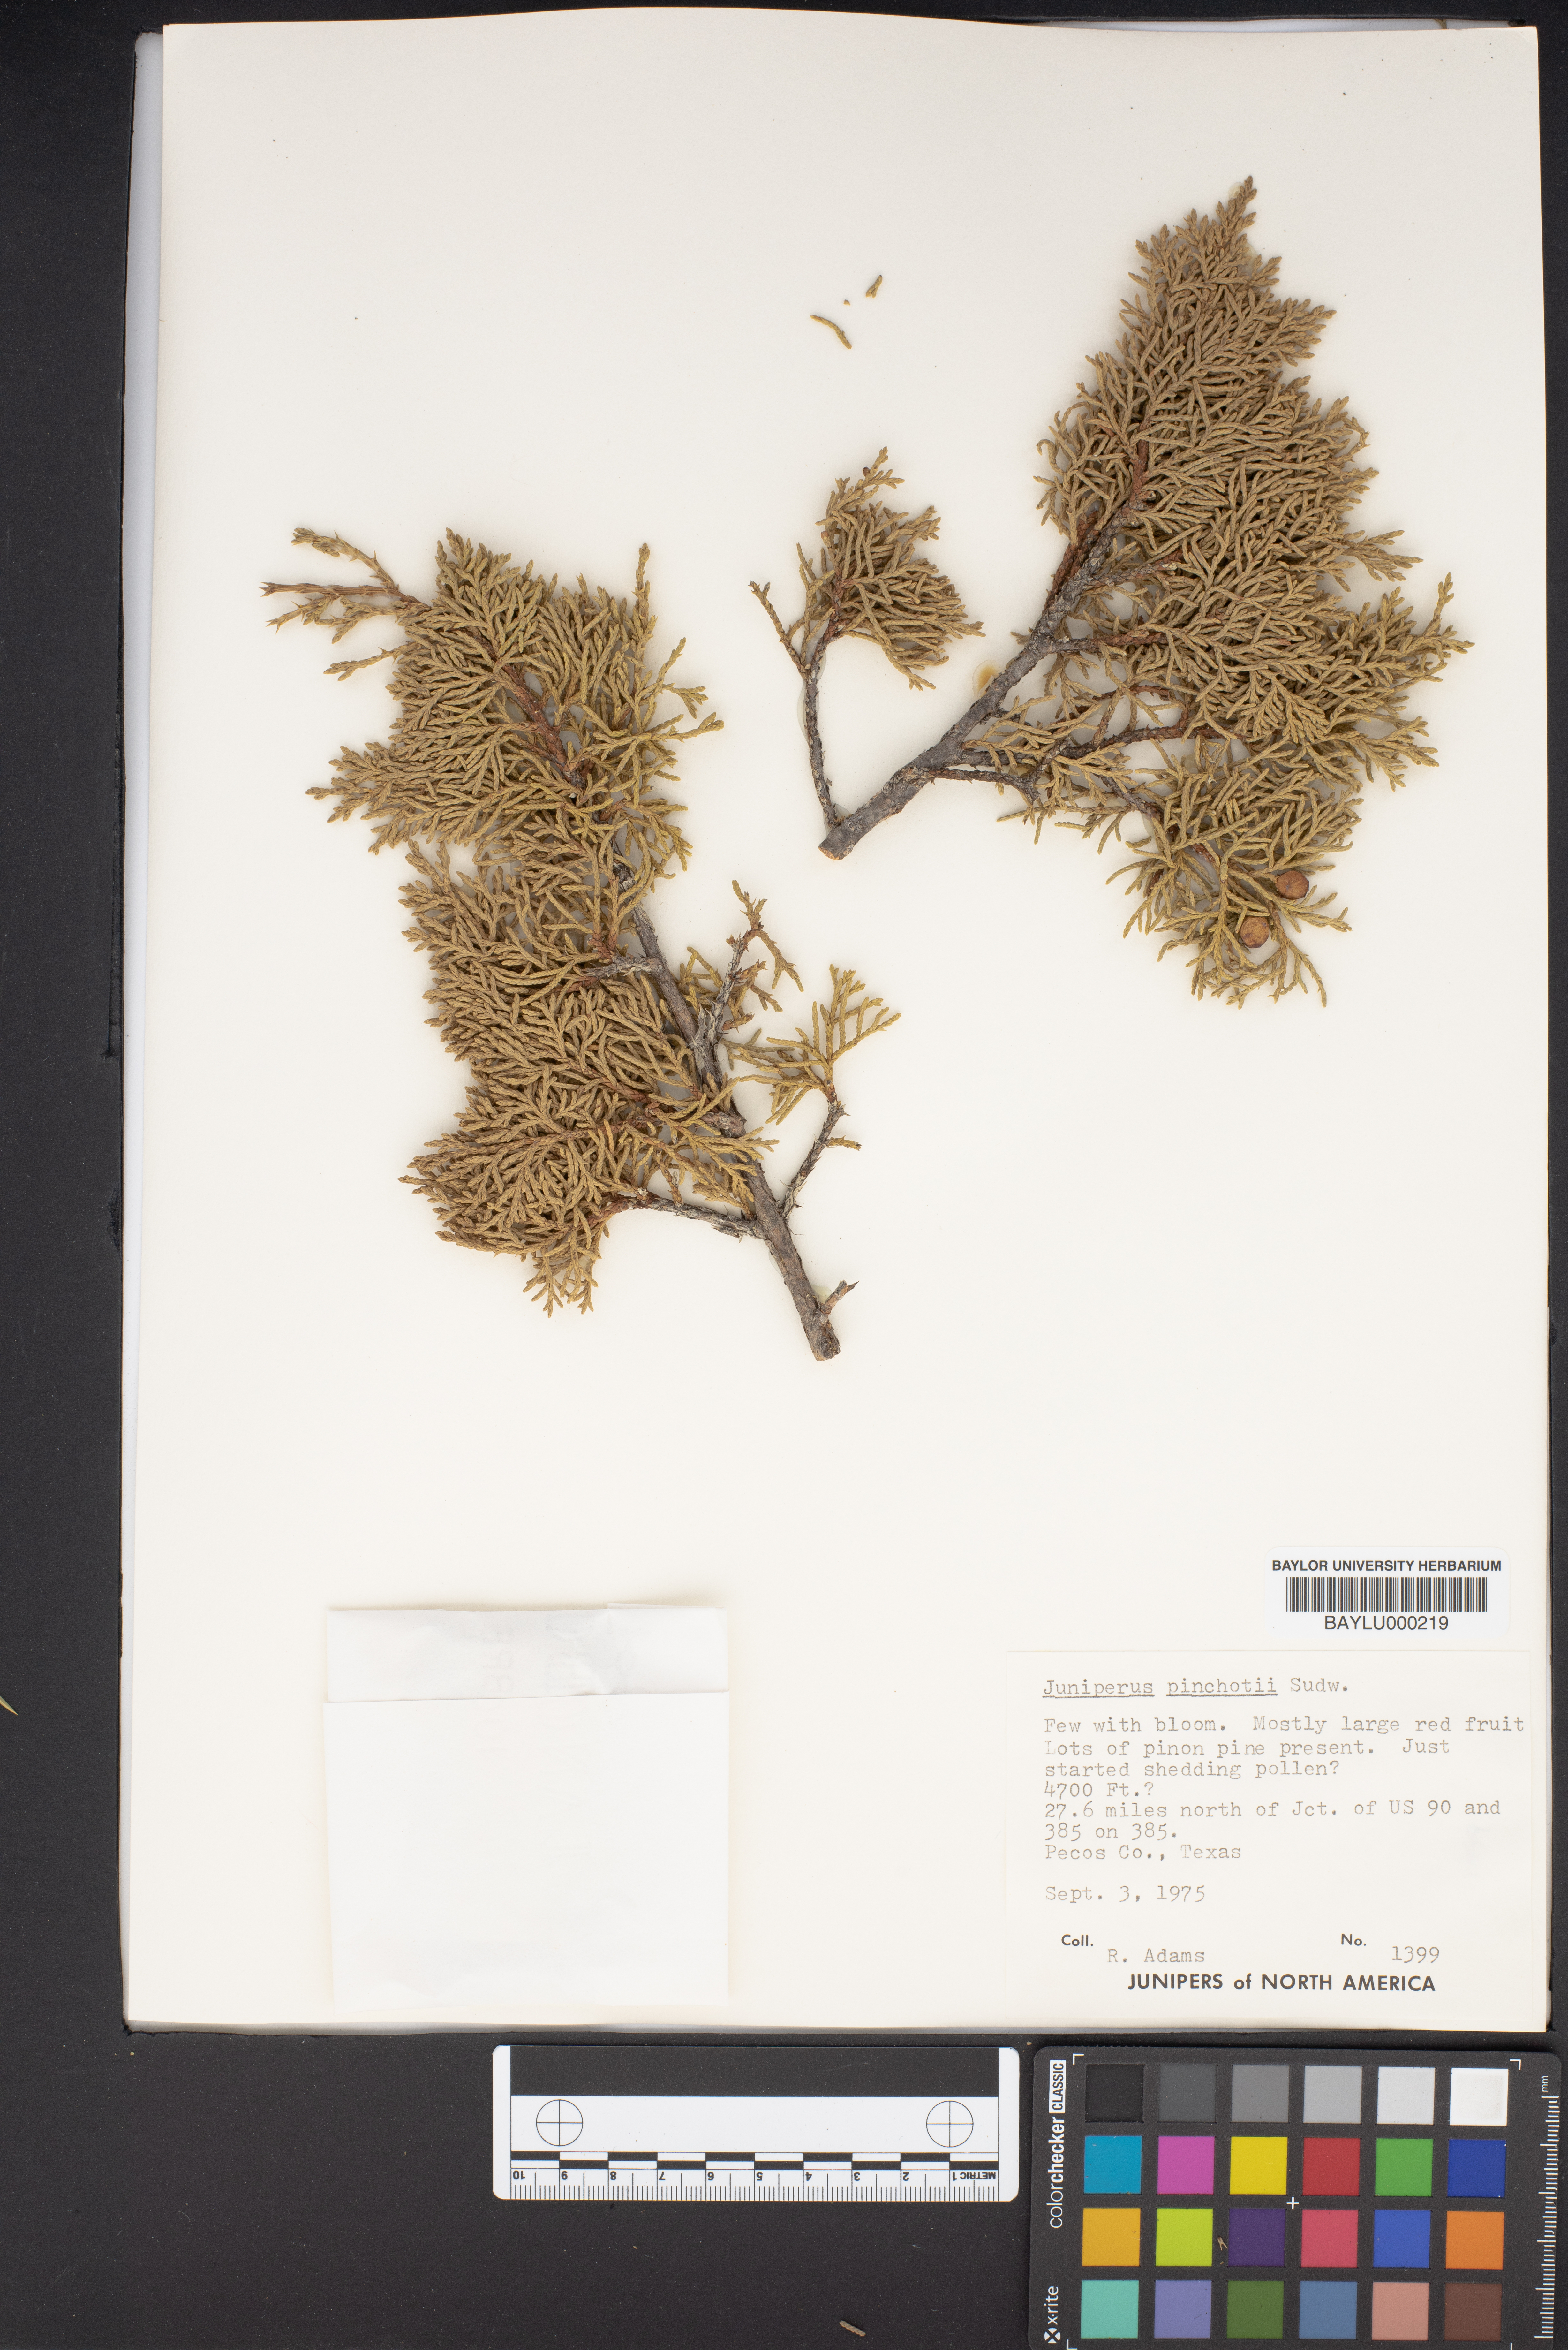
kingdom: Plantae
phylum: Tracheophyta
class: Pinopsida
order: Pinales
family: Cupressaceae
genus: Juniperus
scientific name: Juniperus pinchotii
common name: Pinchot juniper
